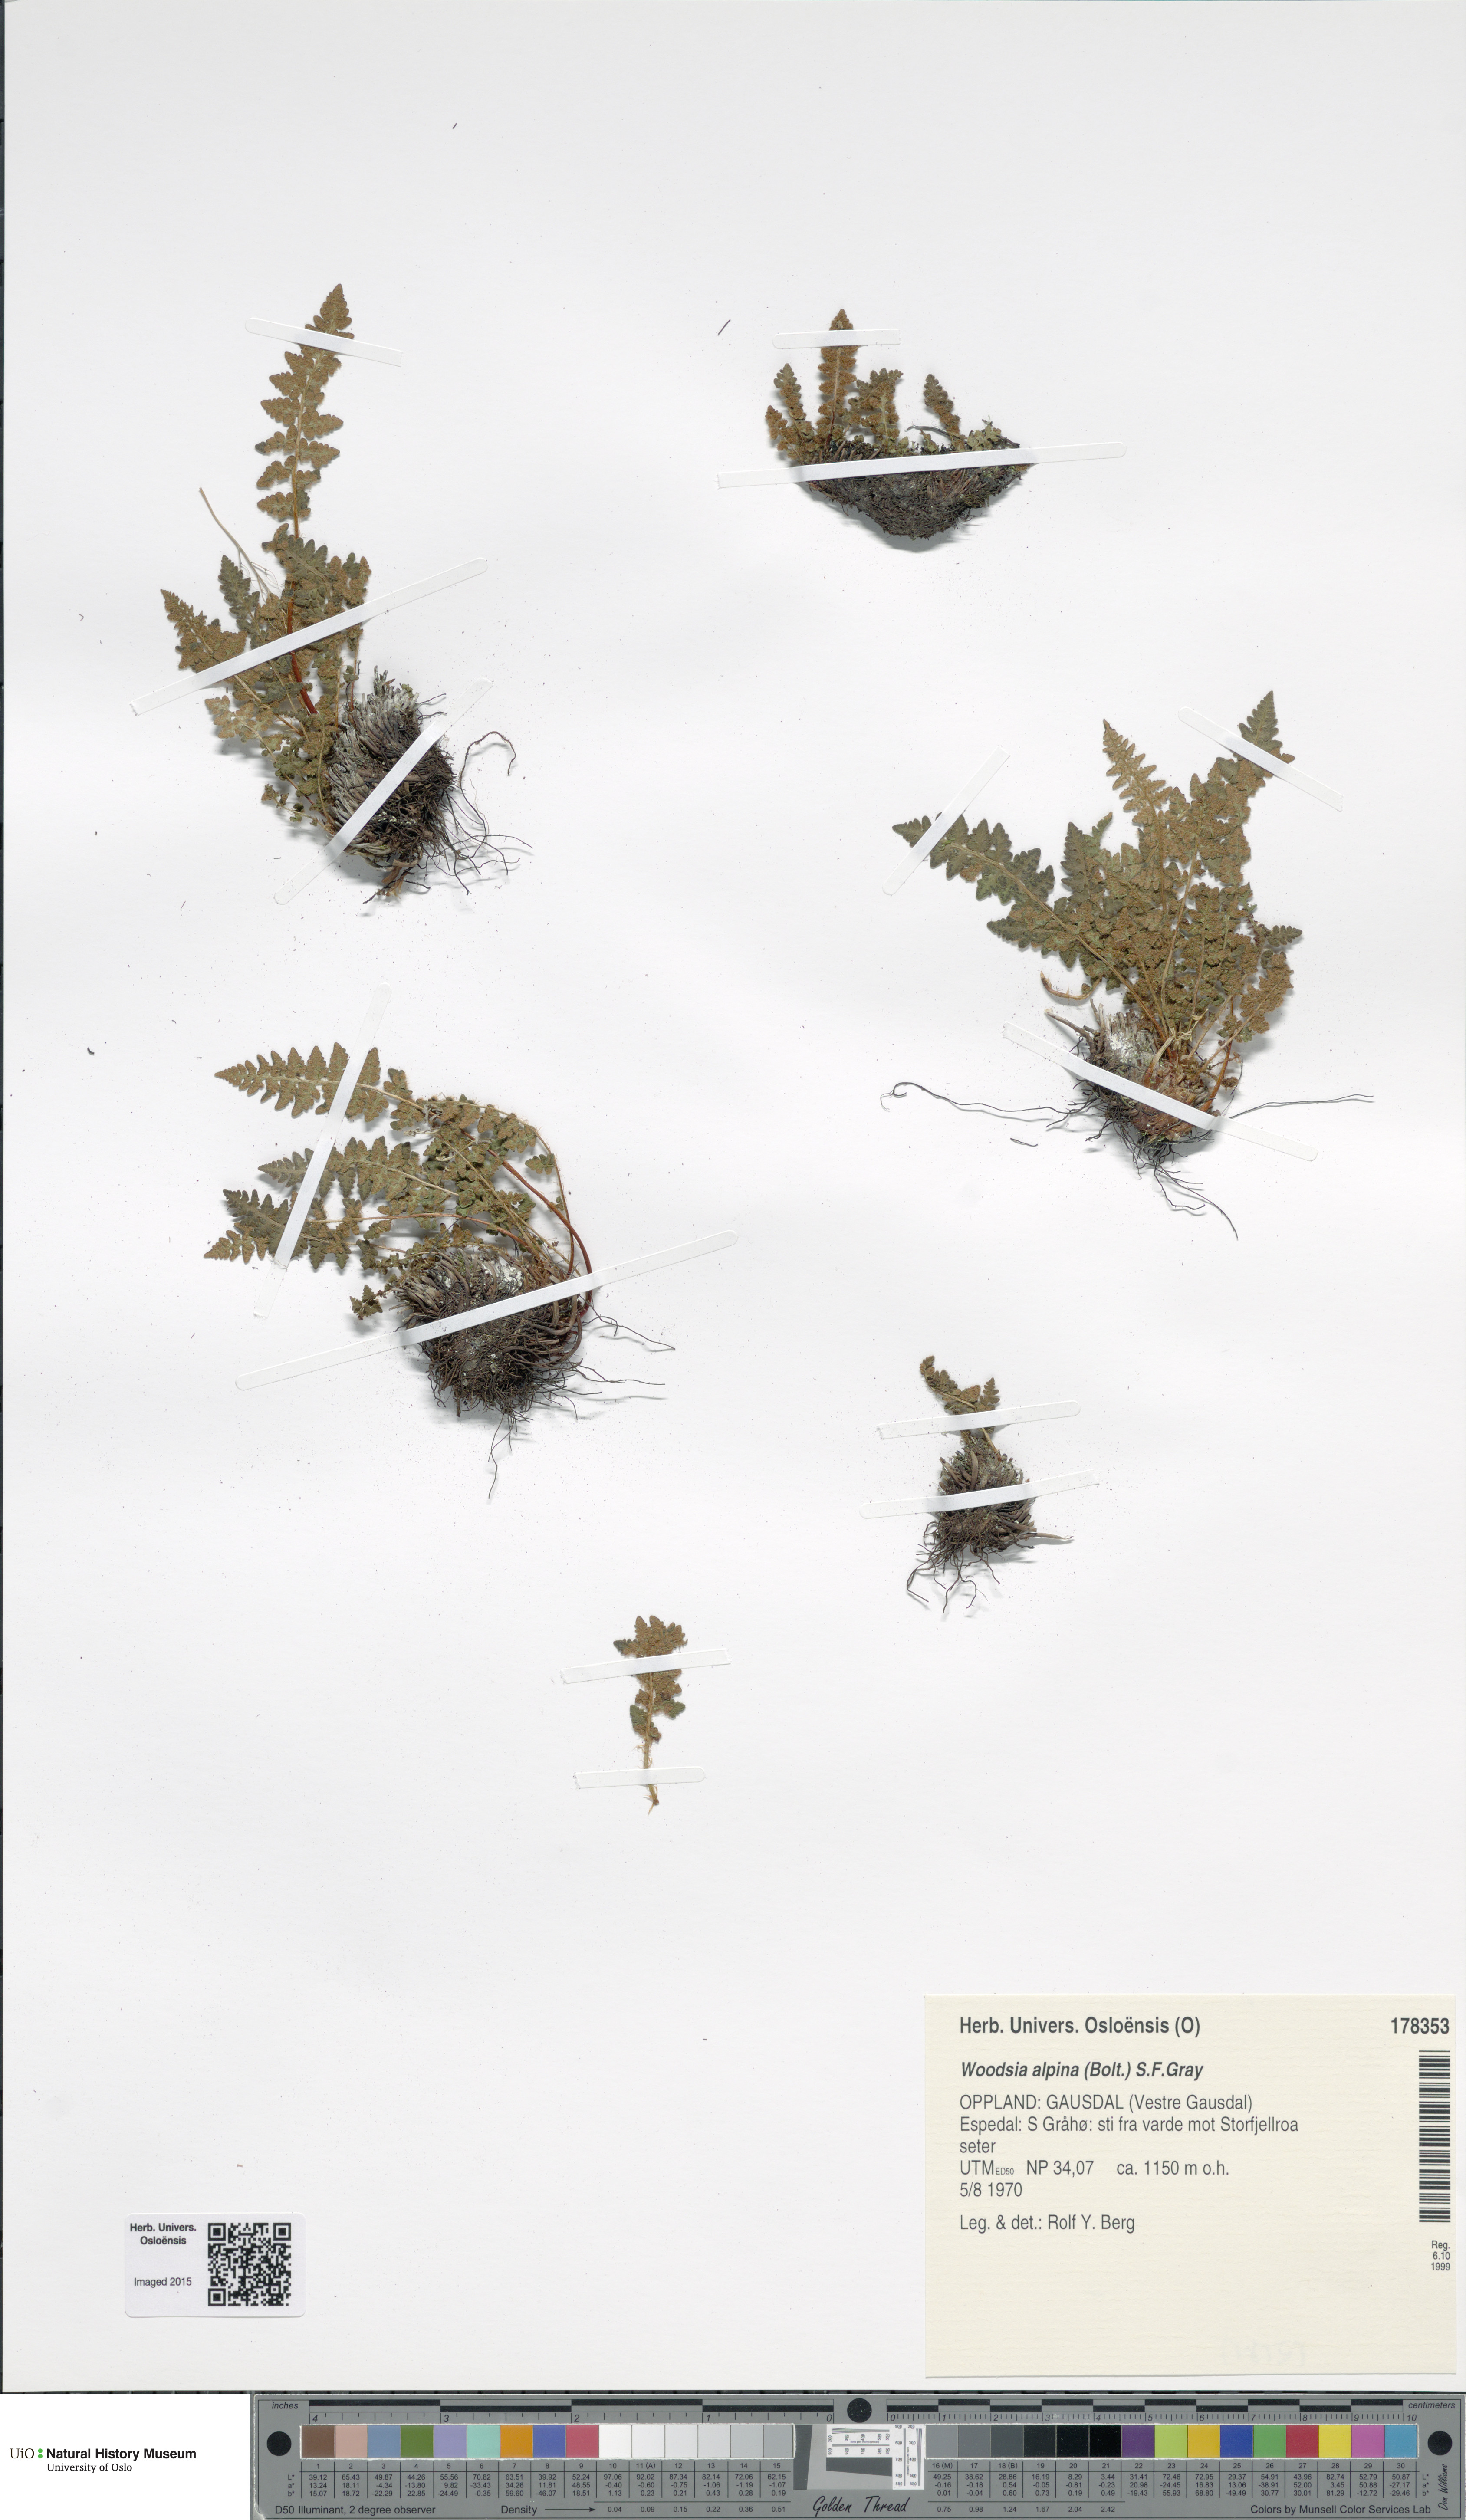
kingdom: Plantae
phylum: Tracheophyta
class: Polypodiopsida
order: Polypodiales
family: Woodsiaceae
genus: Woodsia
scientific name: Woodsia alpina
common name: Alpine woodsia
